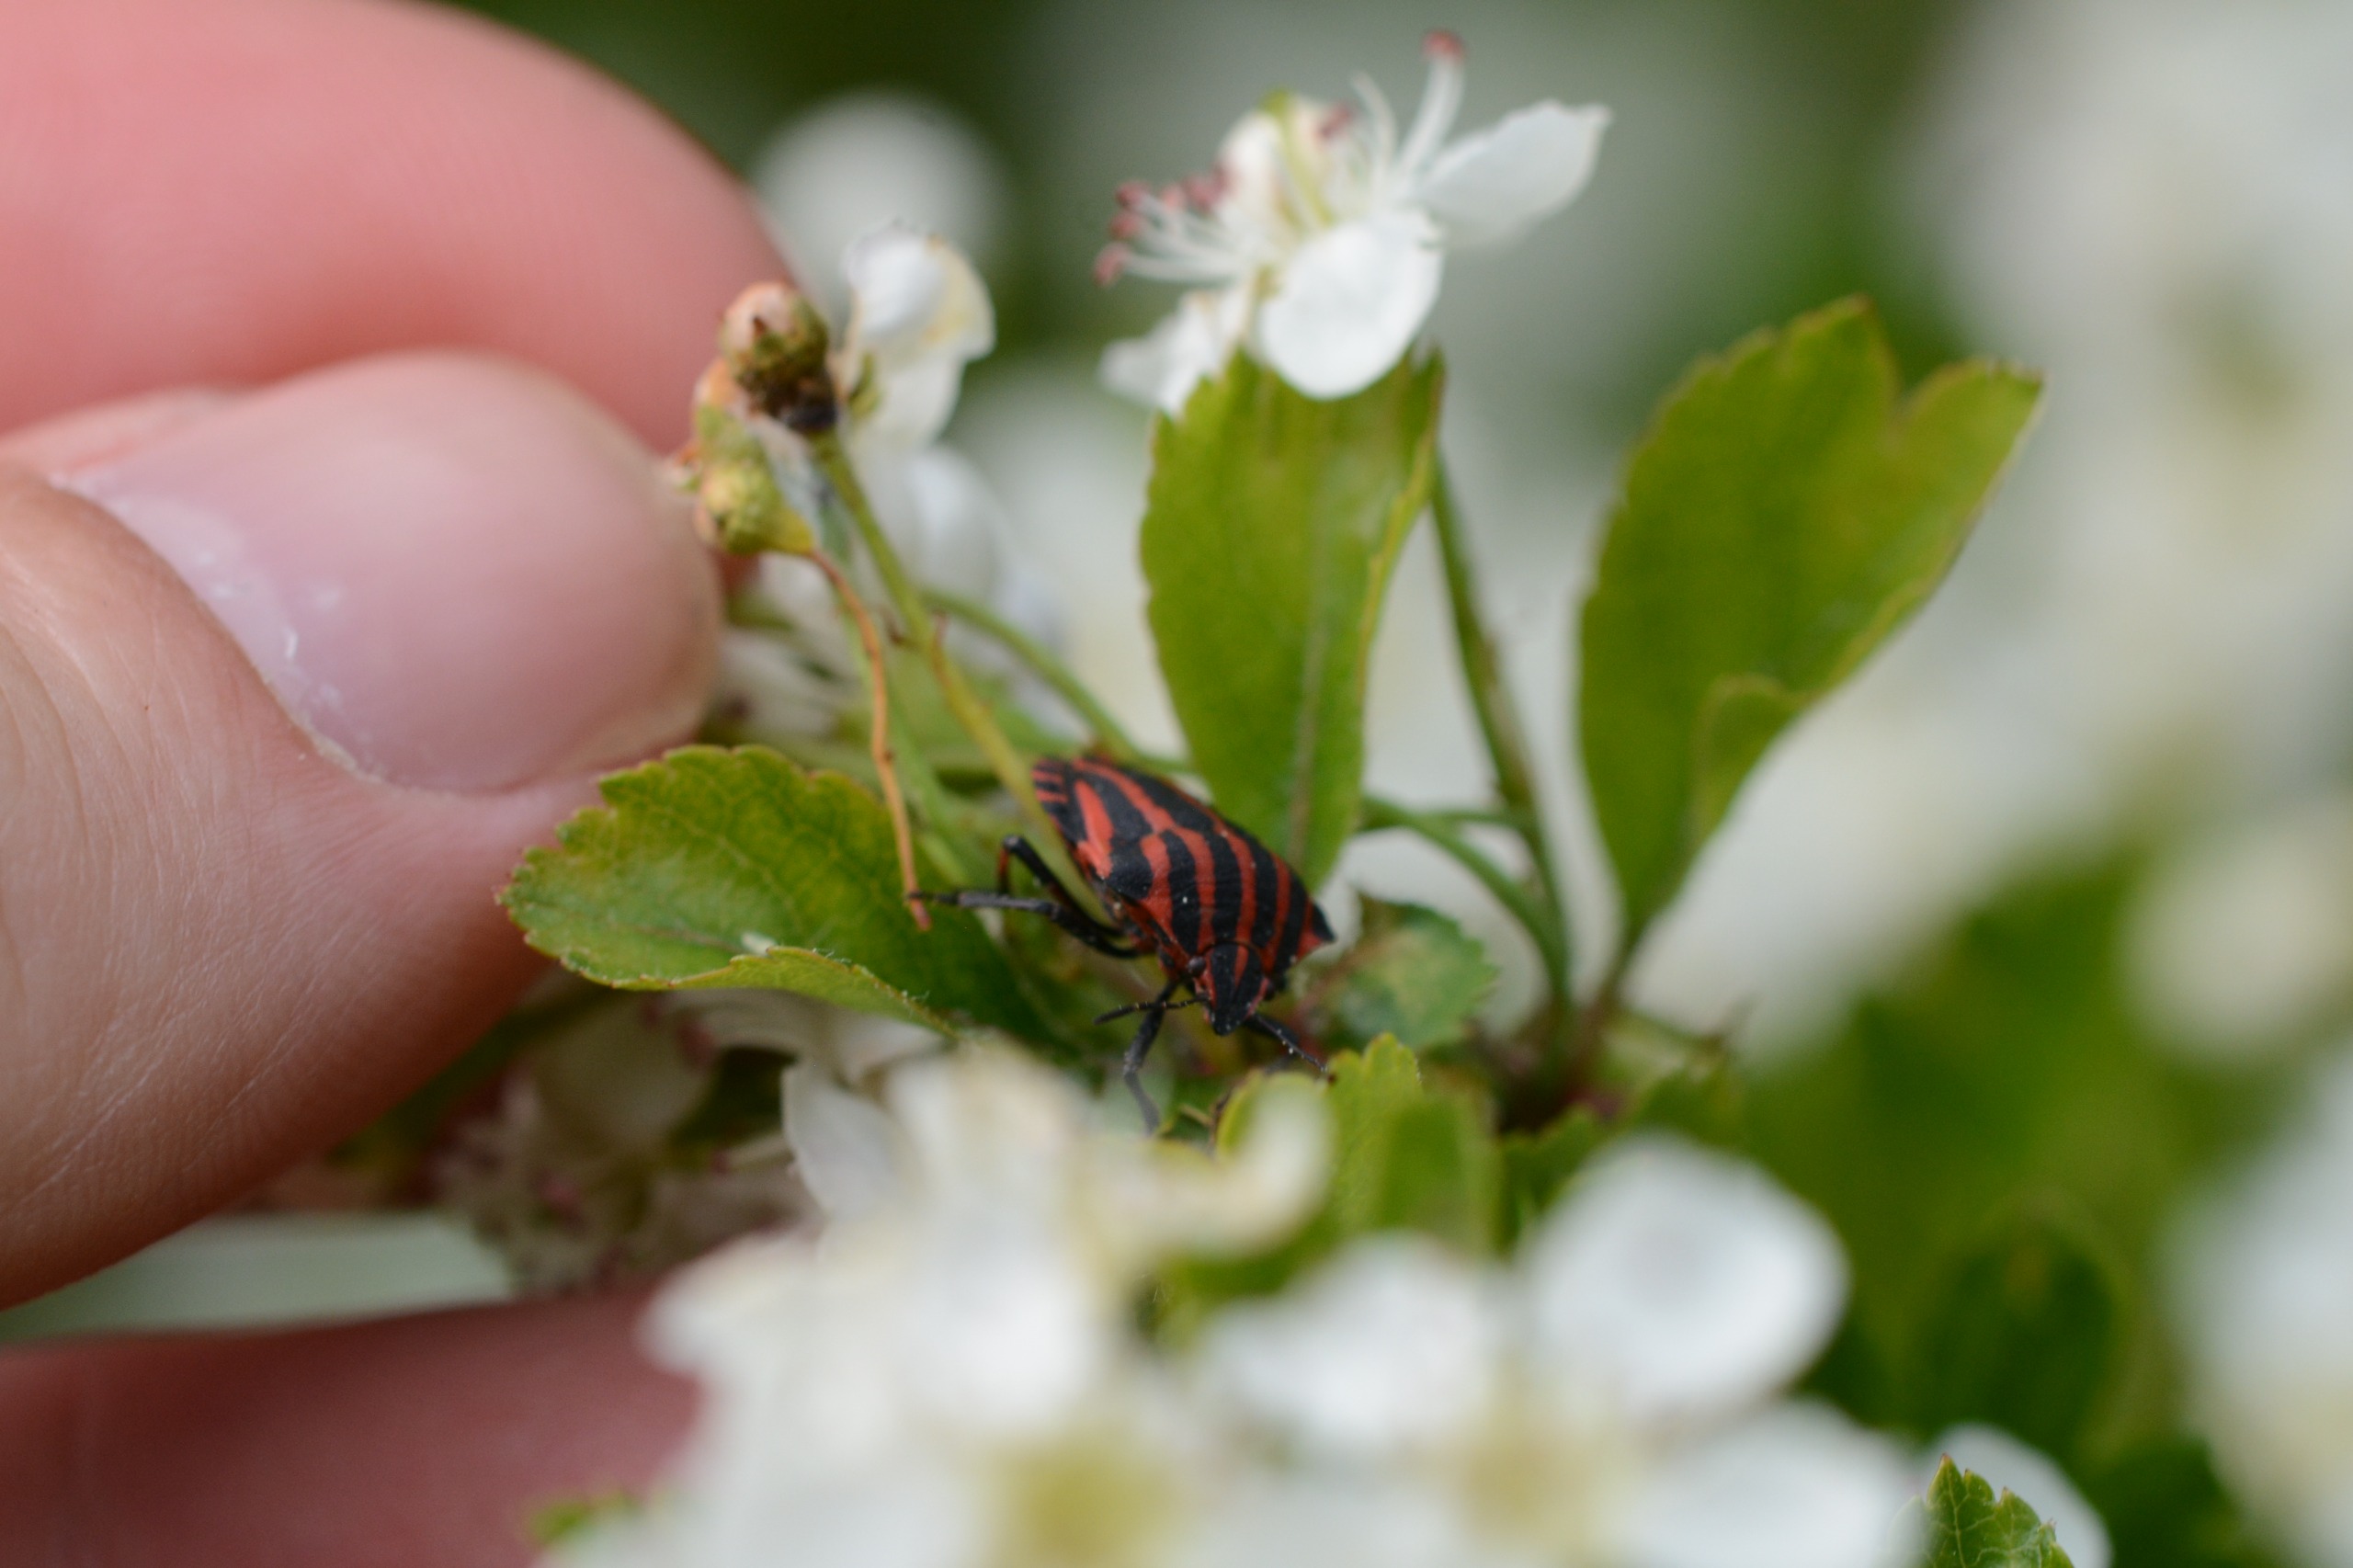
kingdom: Animalia
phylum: Arthropoda
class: Insecta
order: Hemiptera
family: Pentatomidae
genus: Graphosoma
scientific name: Graphosoma italicum
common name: Stribetæge
